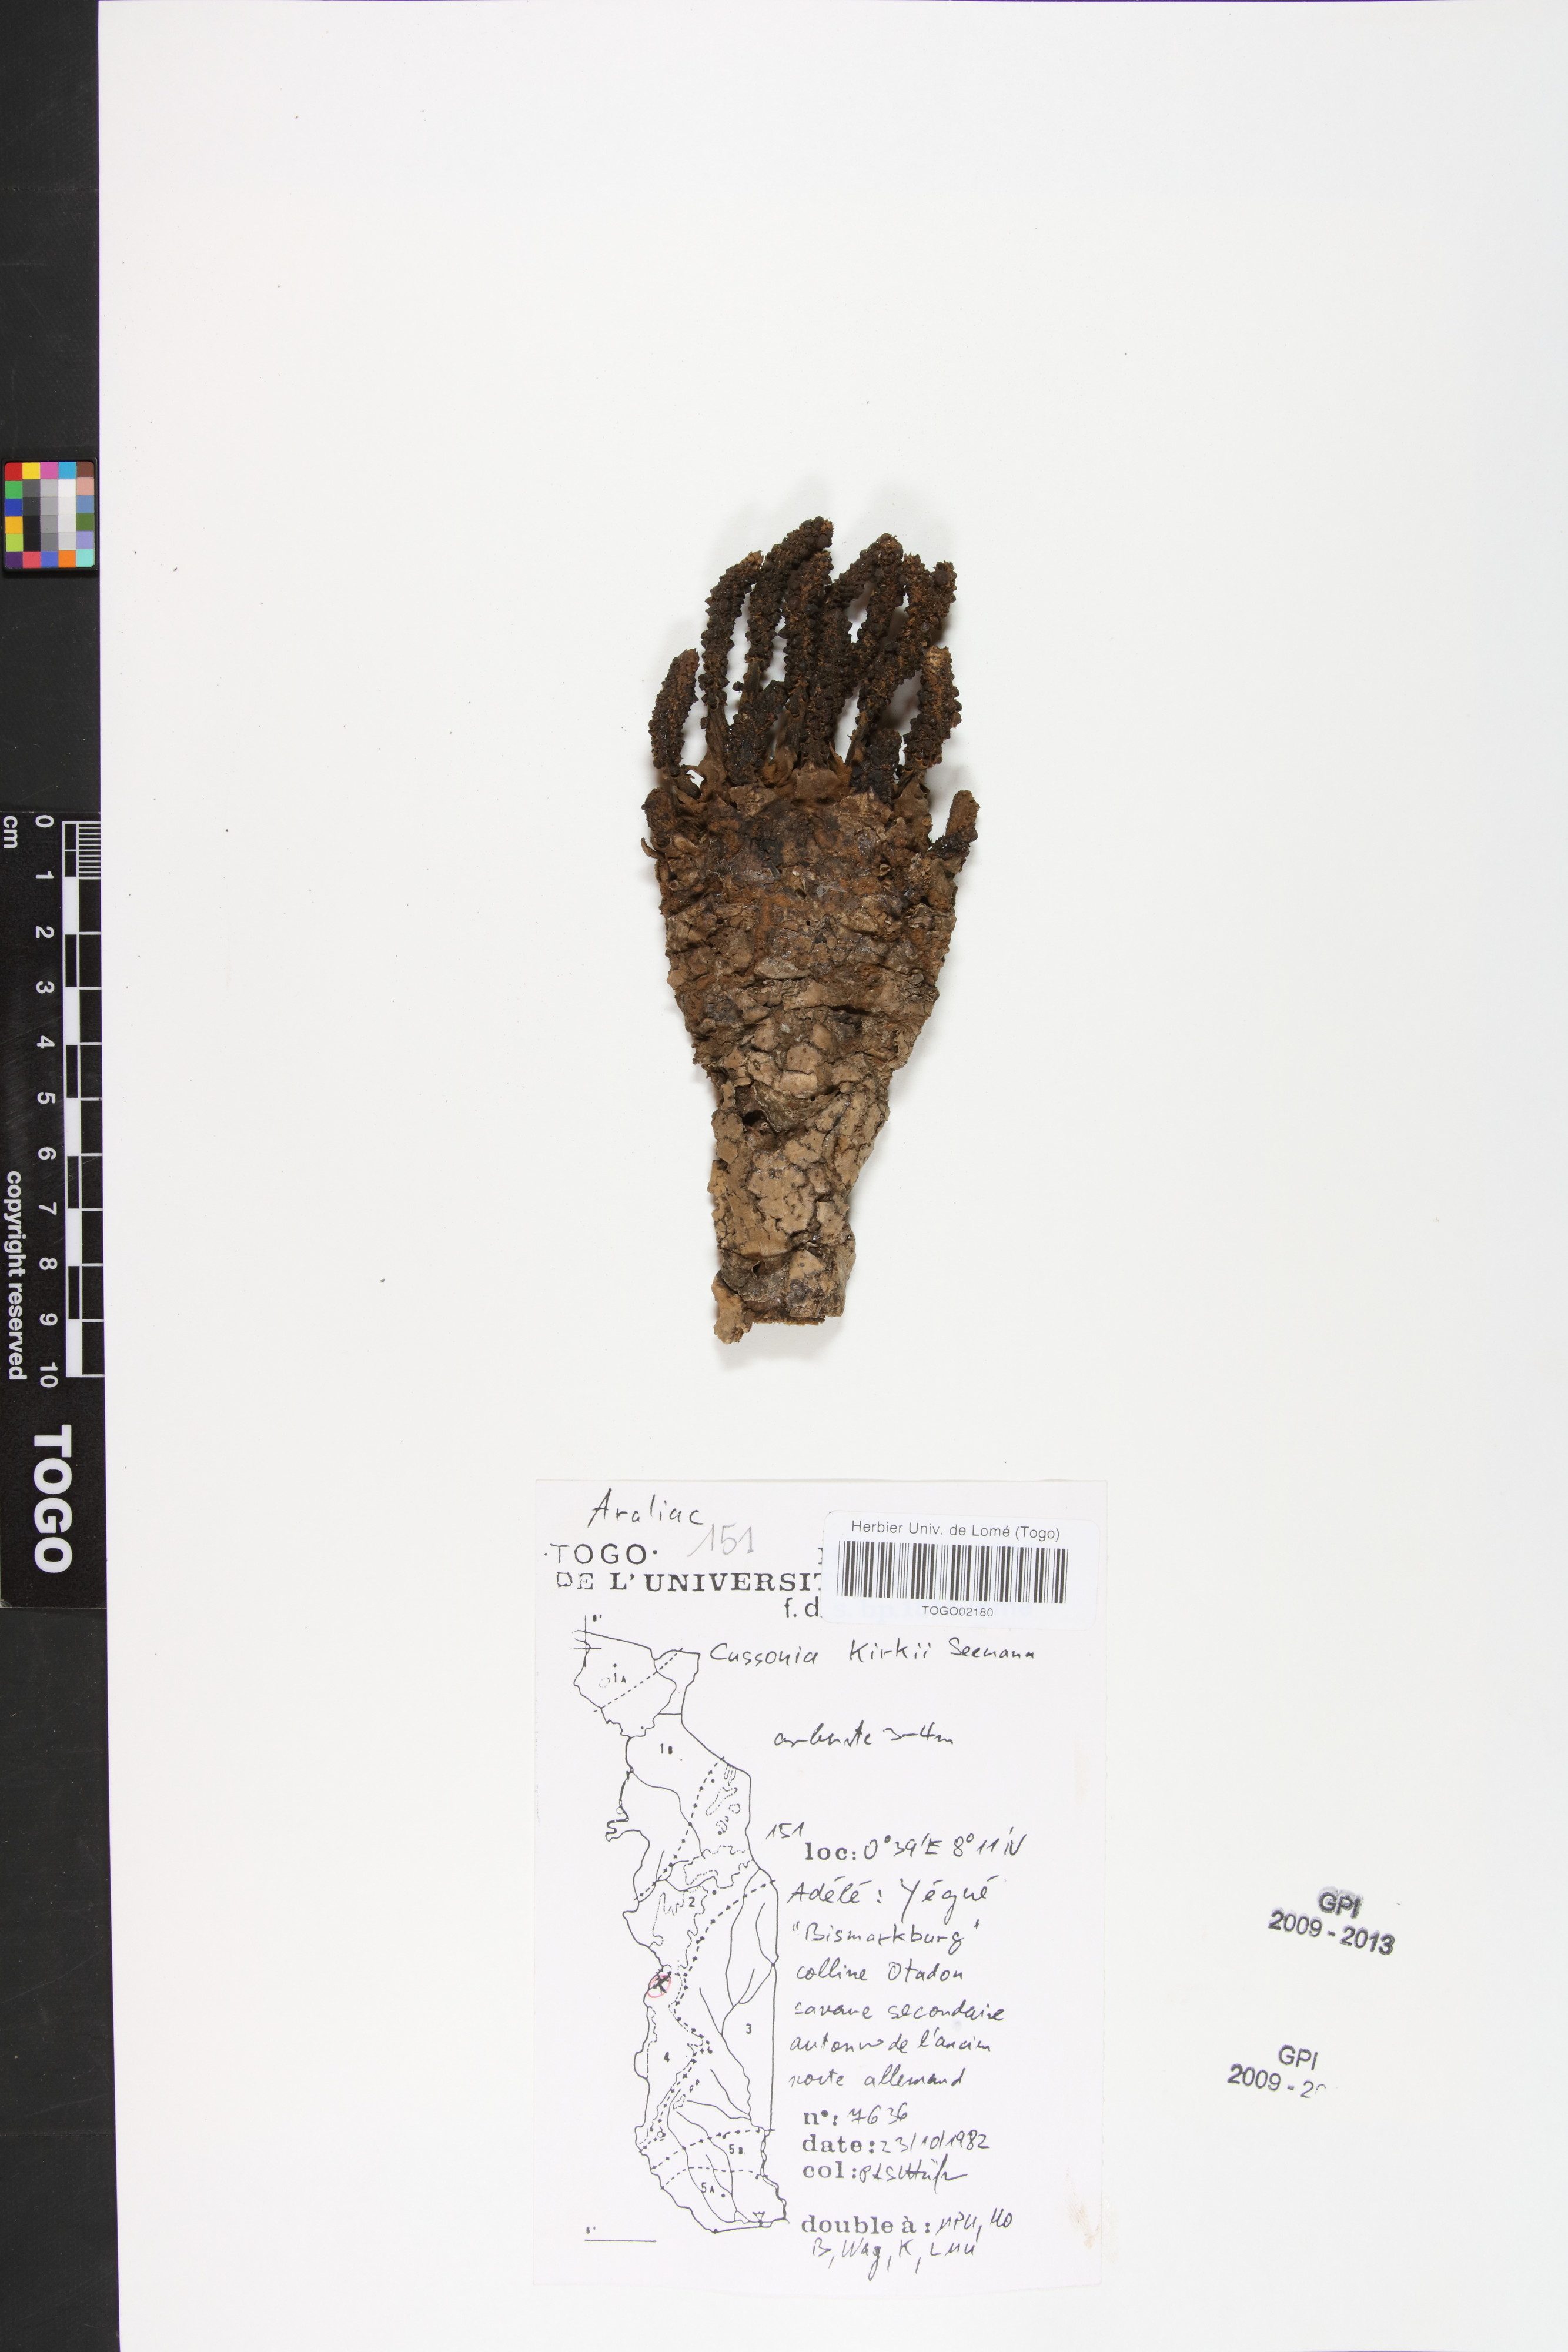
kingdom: Plantae
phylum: Tracheophyta
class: Magnoliopsida
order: Apiales
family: Araliaceae
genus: Cussonia
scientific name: Cussonia arborea
